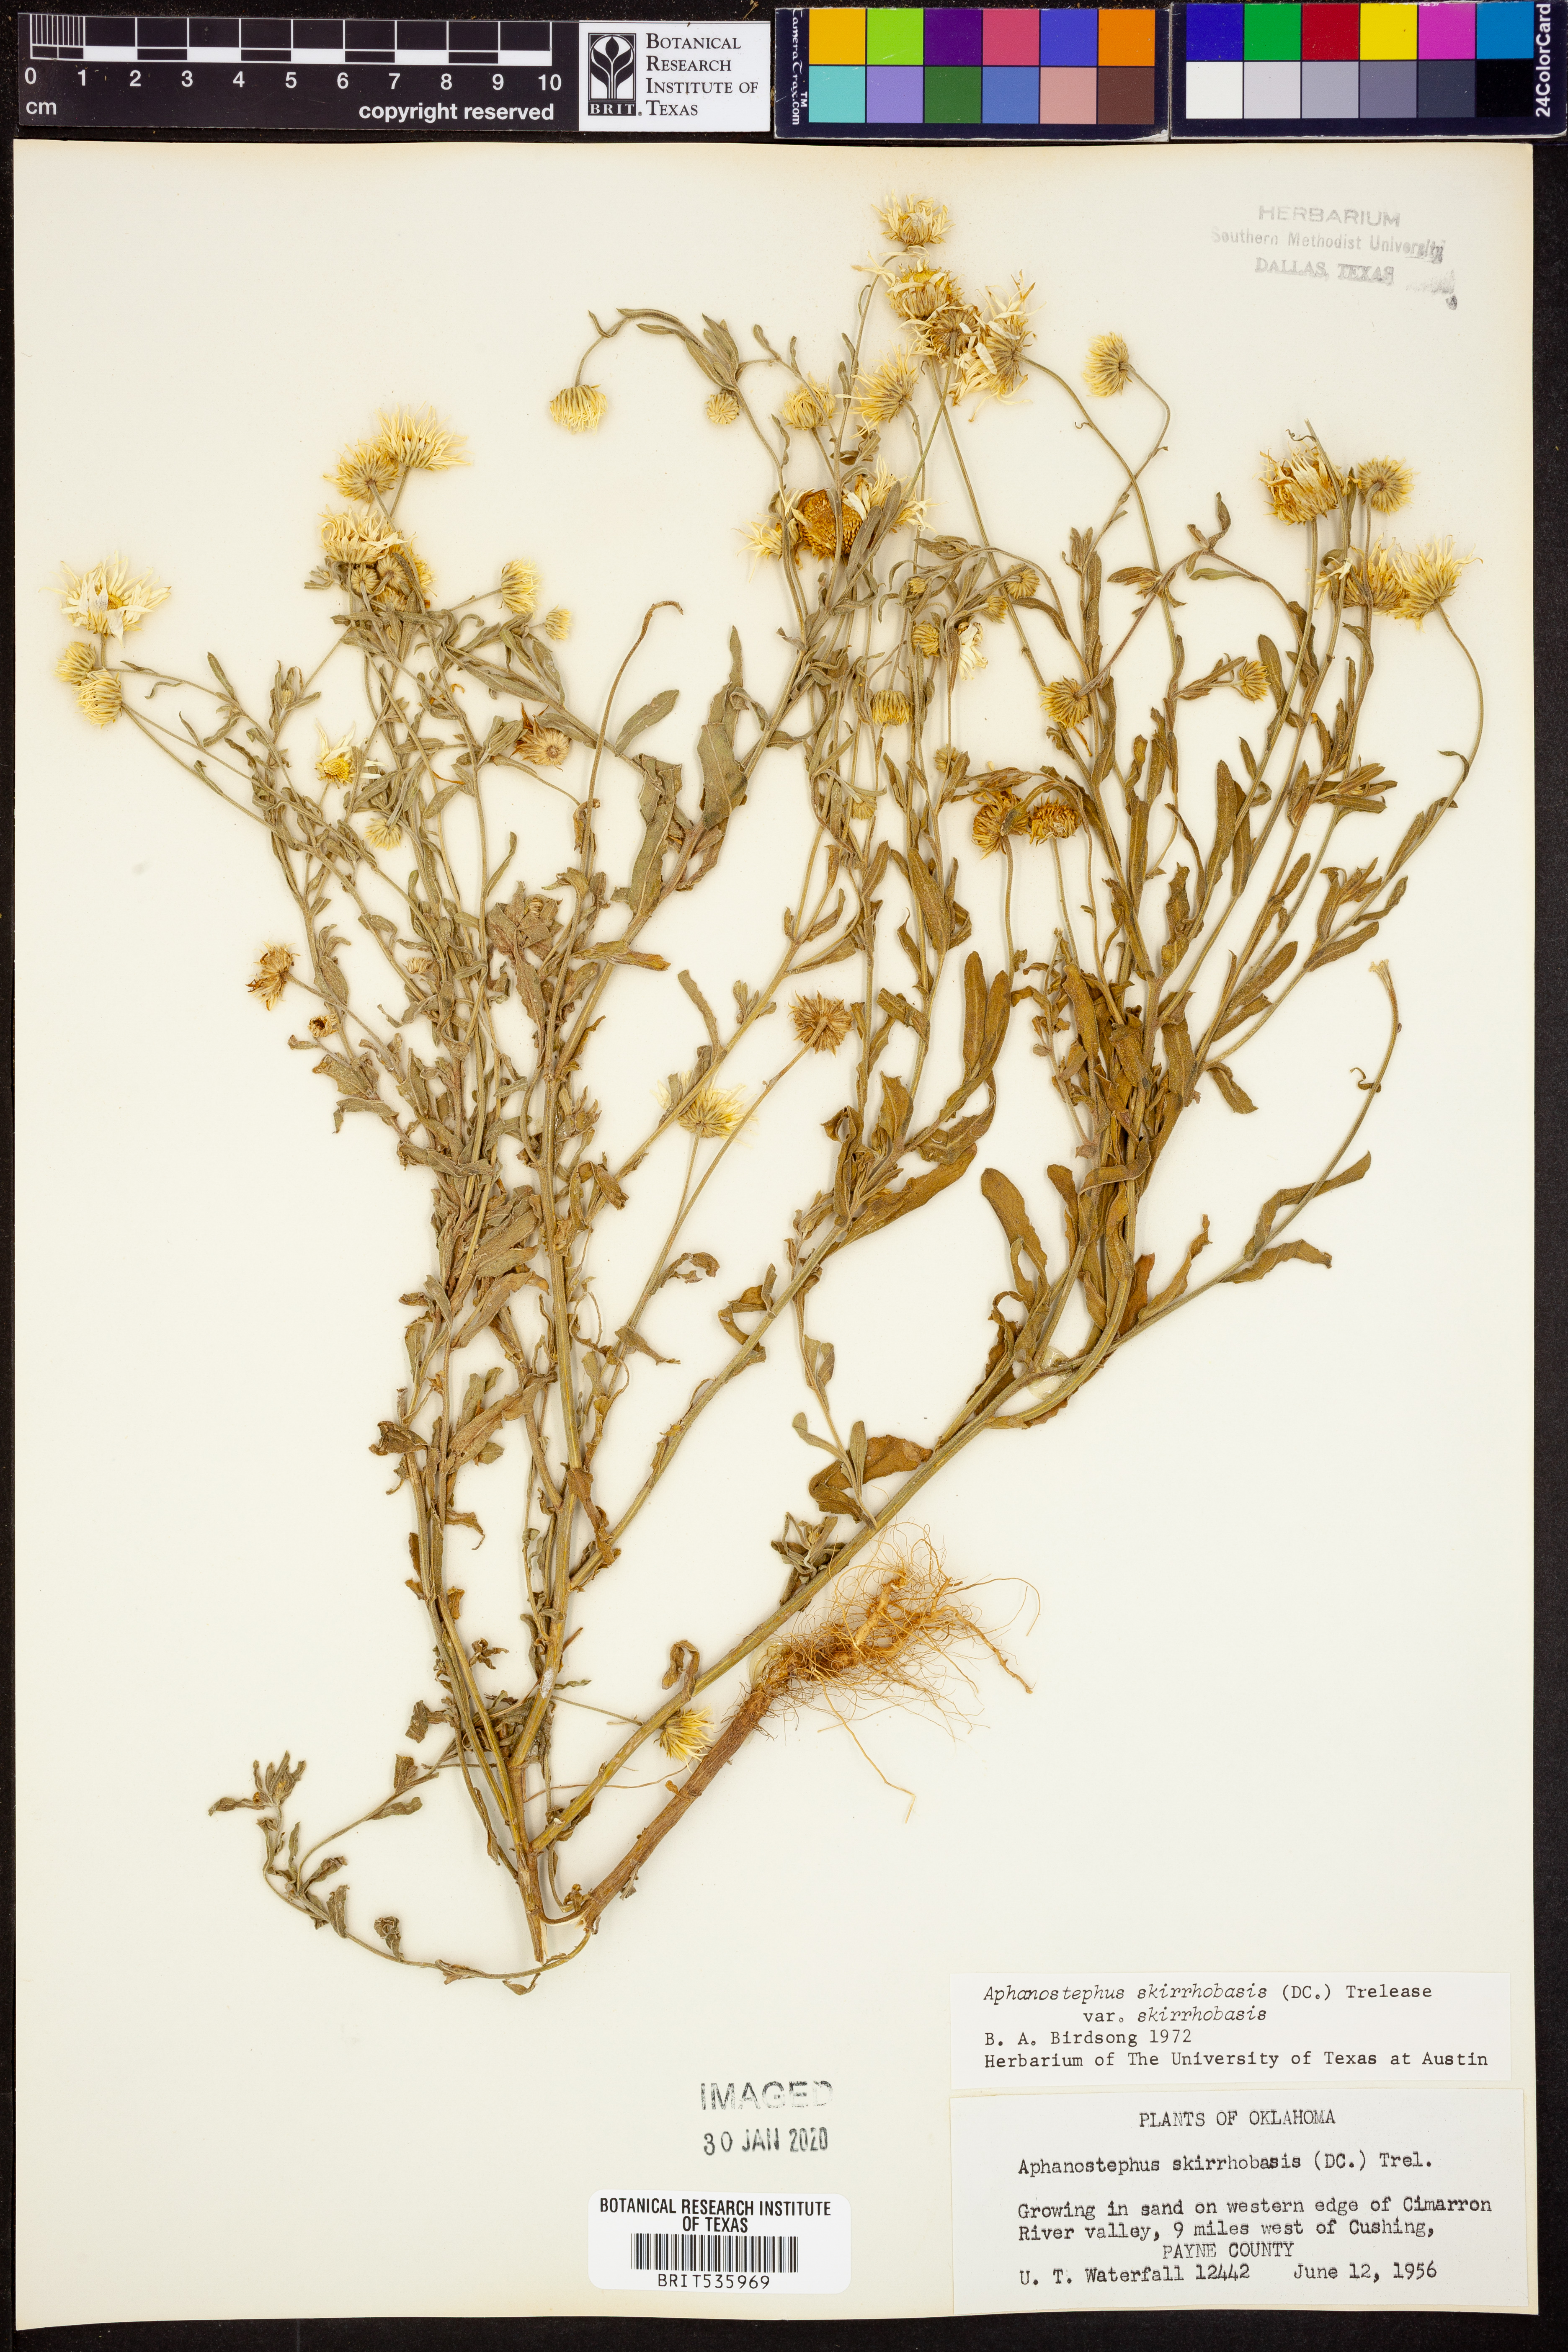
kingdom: Plantae
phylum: Tracheophyta
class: Magnoliopsida
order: Asterales
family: Asteraceae
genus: Aphanostephus
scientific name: Aphanostephus skirrhobasis
